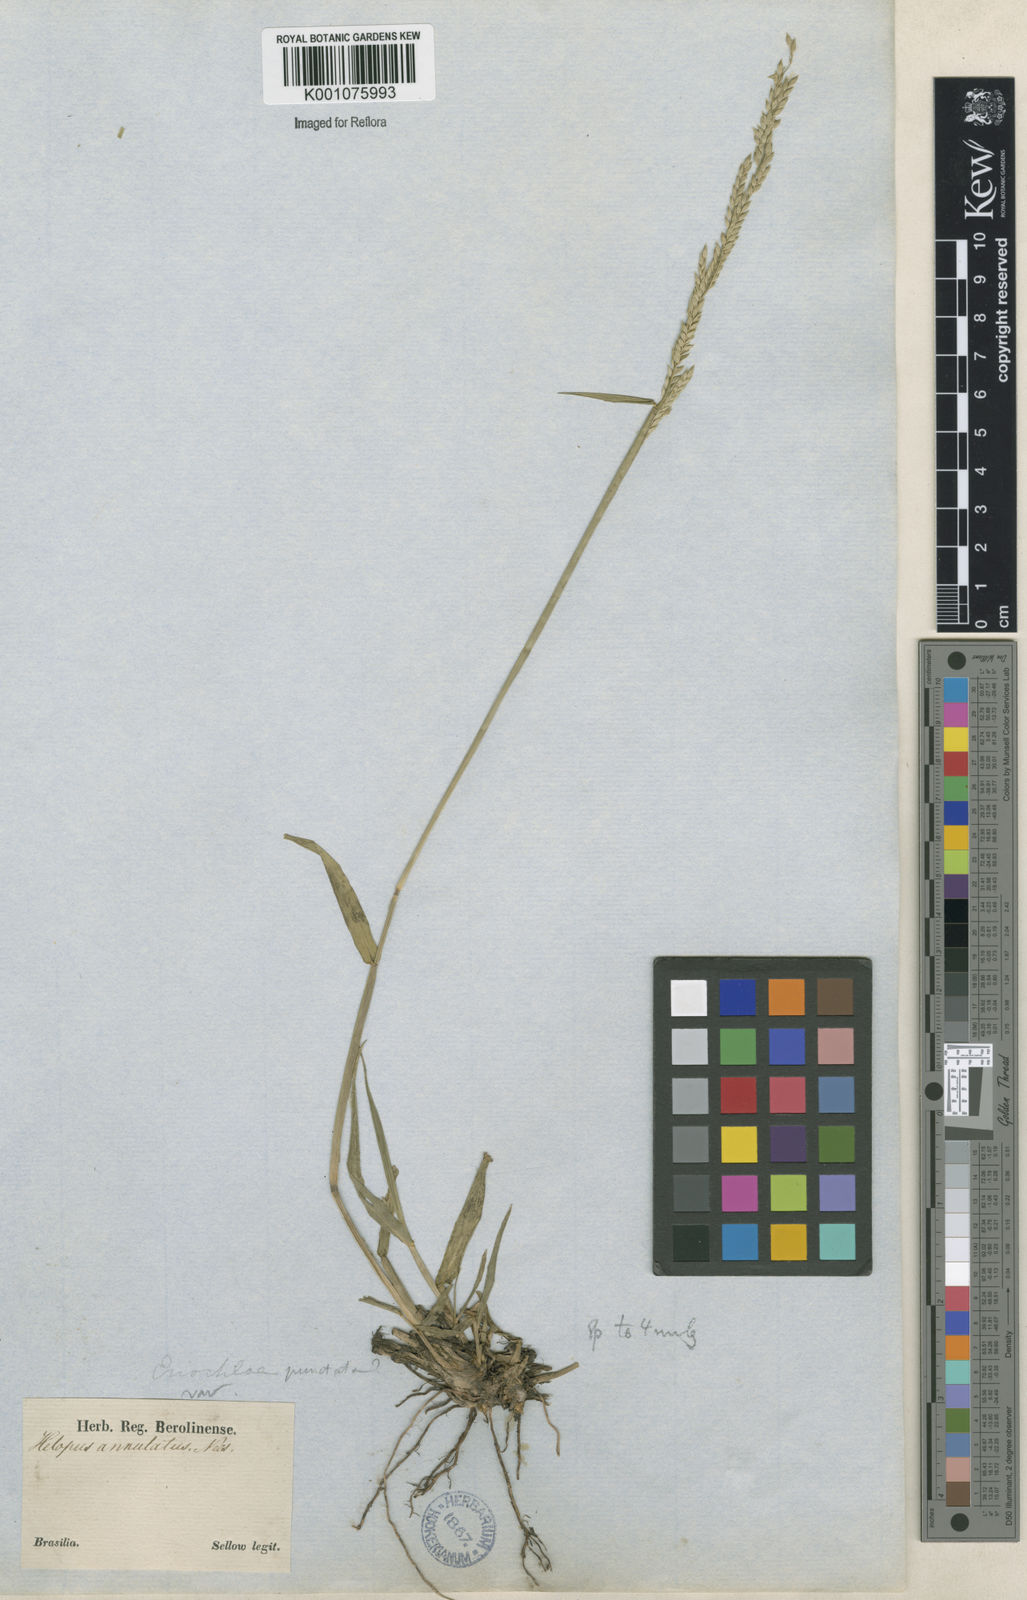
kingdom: Plantae
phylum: Tracheophyta
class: Liliopsida
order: Poales
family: Poaceae
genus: Eriochloa
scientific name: Eriochloa punctata
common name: Louisiana cupgrass
